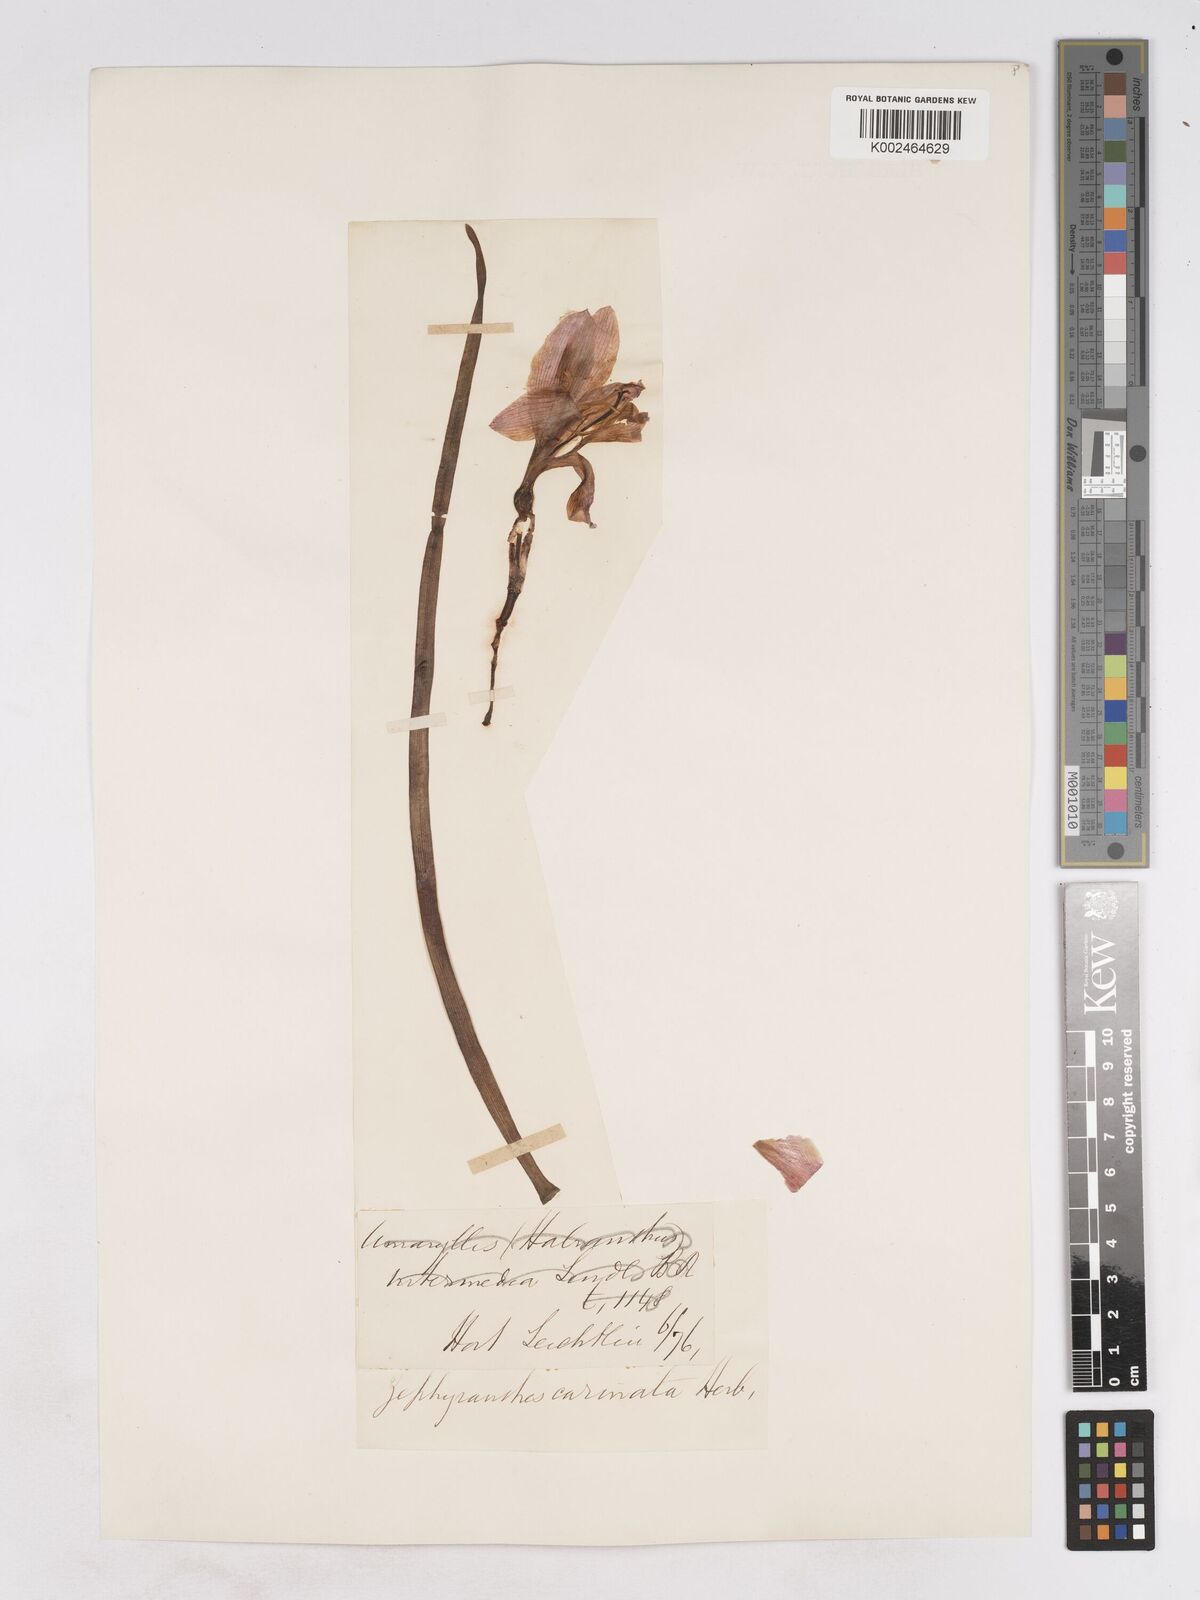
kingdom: Plantae
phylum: Tracheophyta
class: Liliopsida
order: Asparagales
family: Amaryllidaceae
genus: Zephyranthes
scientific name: Zephyranthes minuta
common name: Pink rain lily
